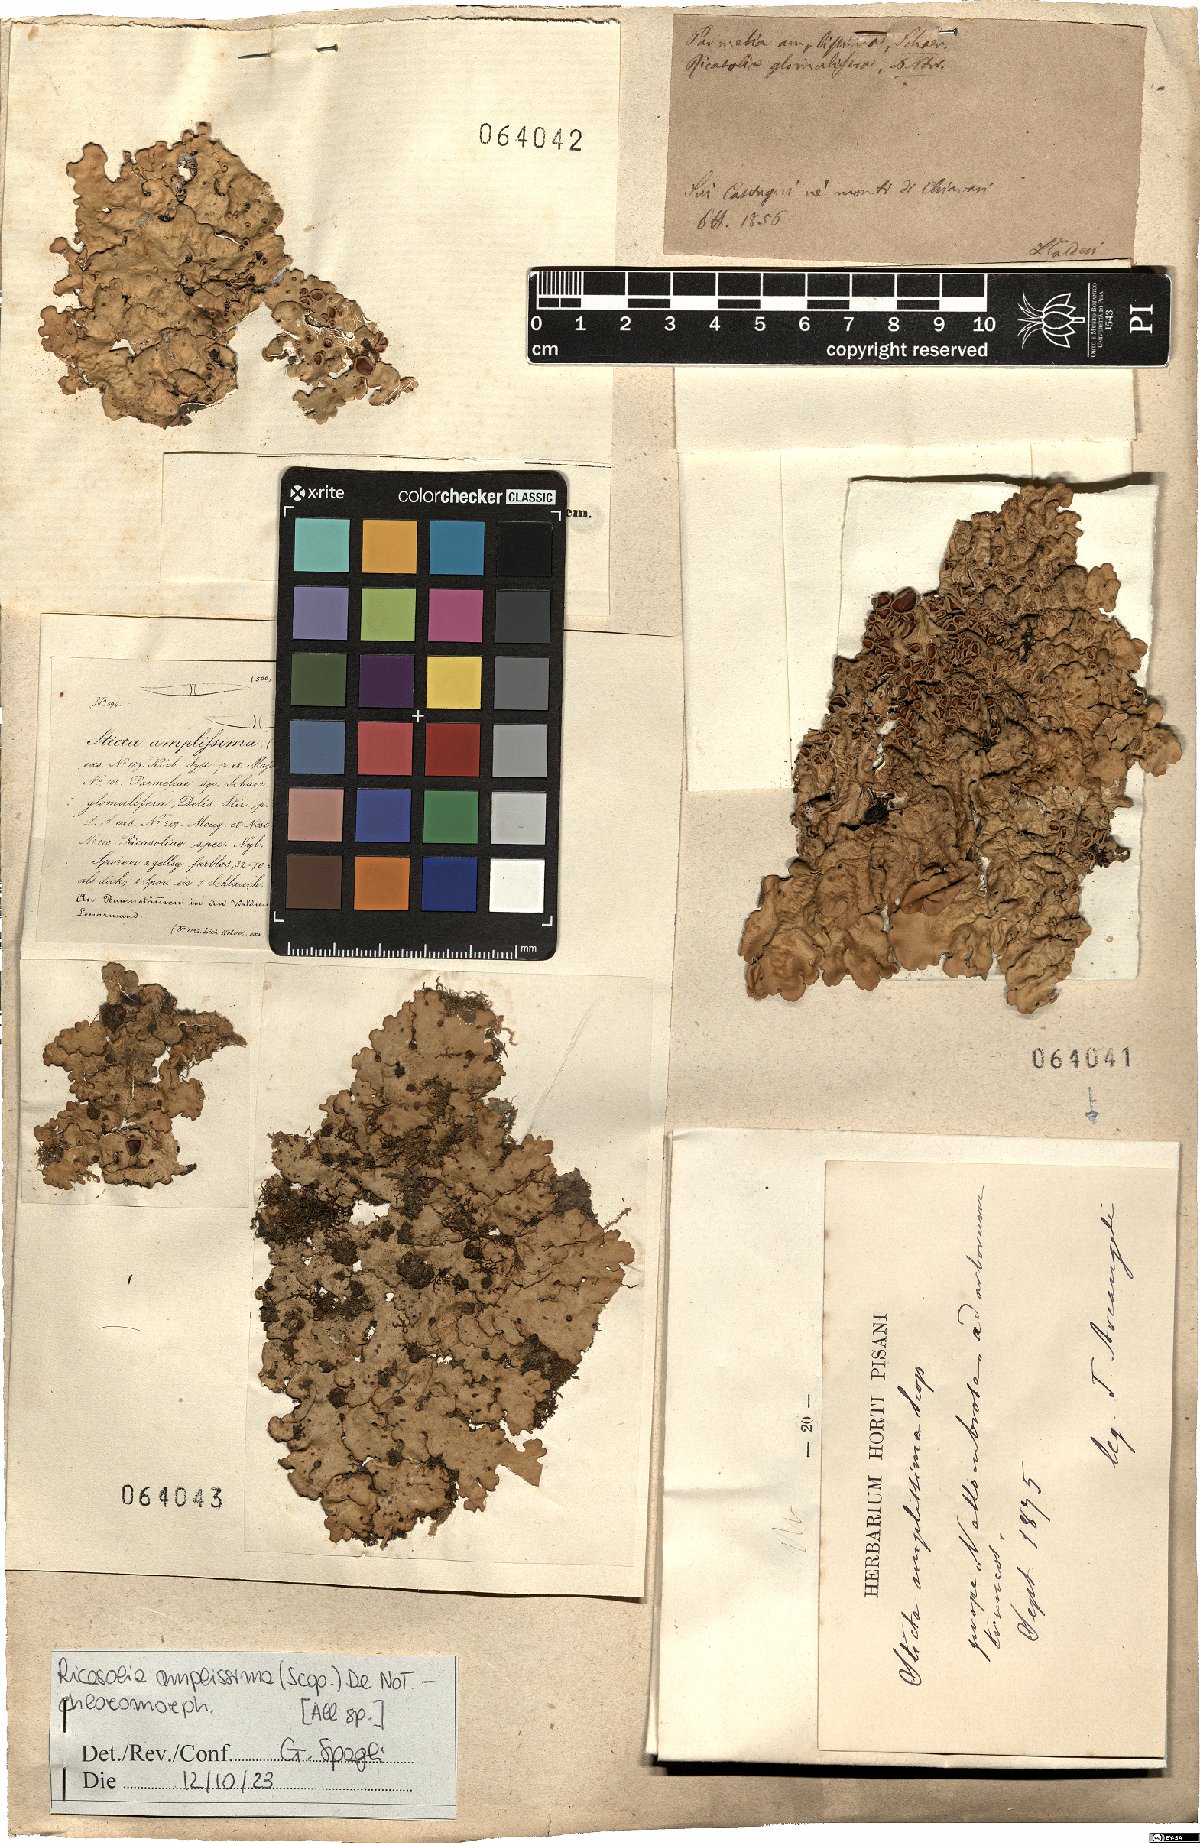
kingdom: Fungi
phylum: Ascomycota
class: Lecanoromycetes
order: Peltigerales
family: Lobariaceae
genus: Ricasolia
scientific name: Ricasolia amplissima
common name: Giant candlewax lichen
